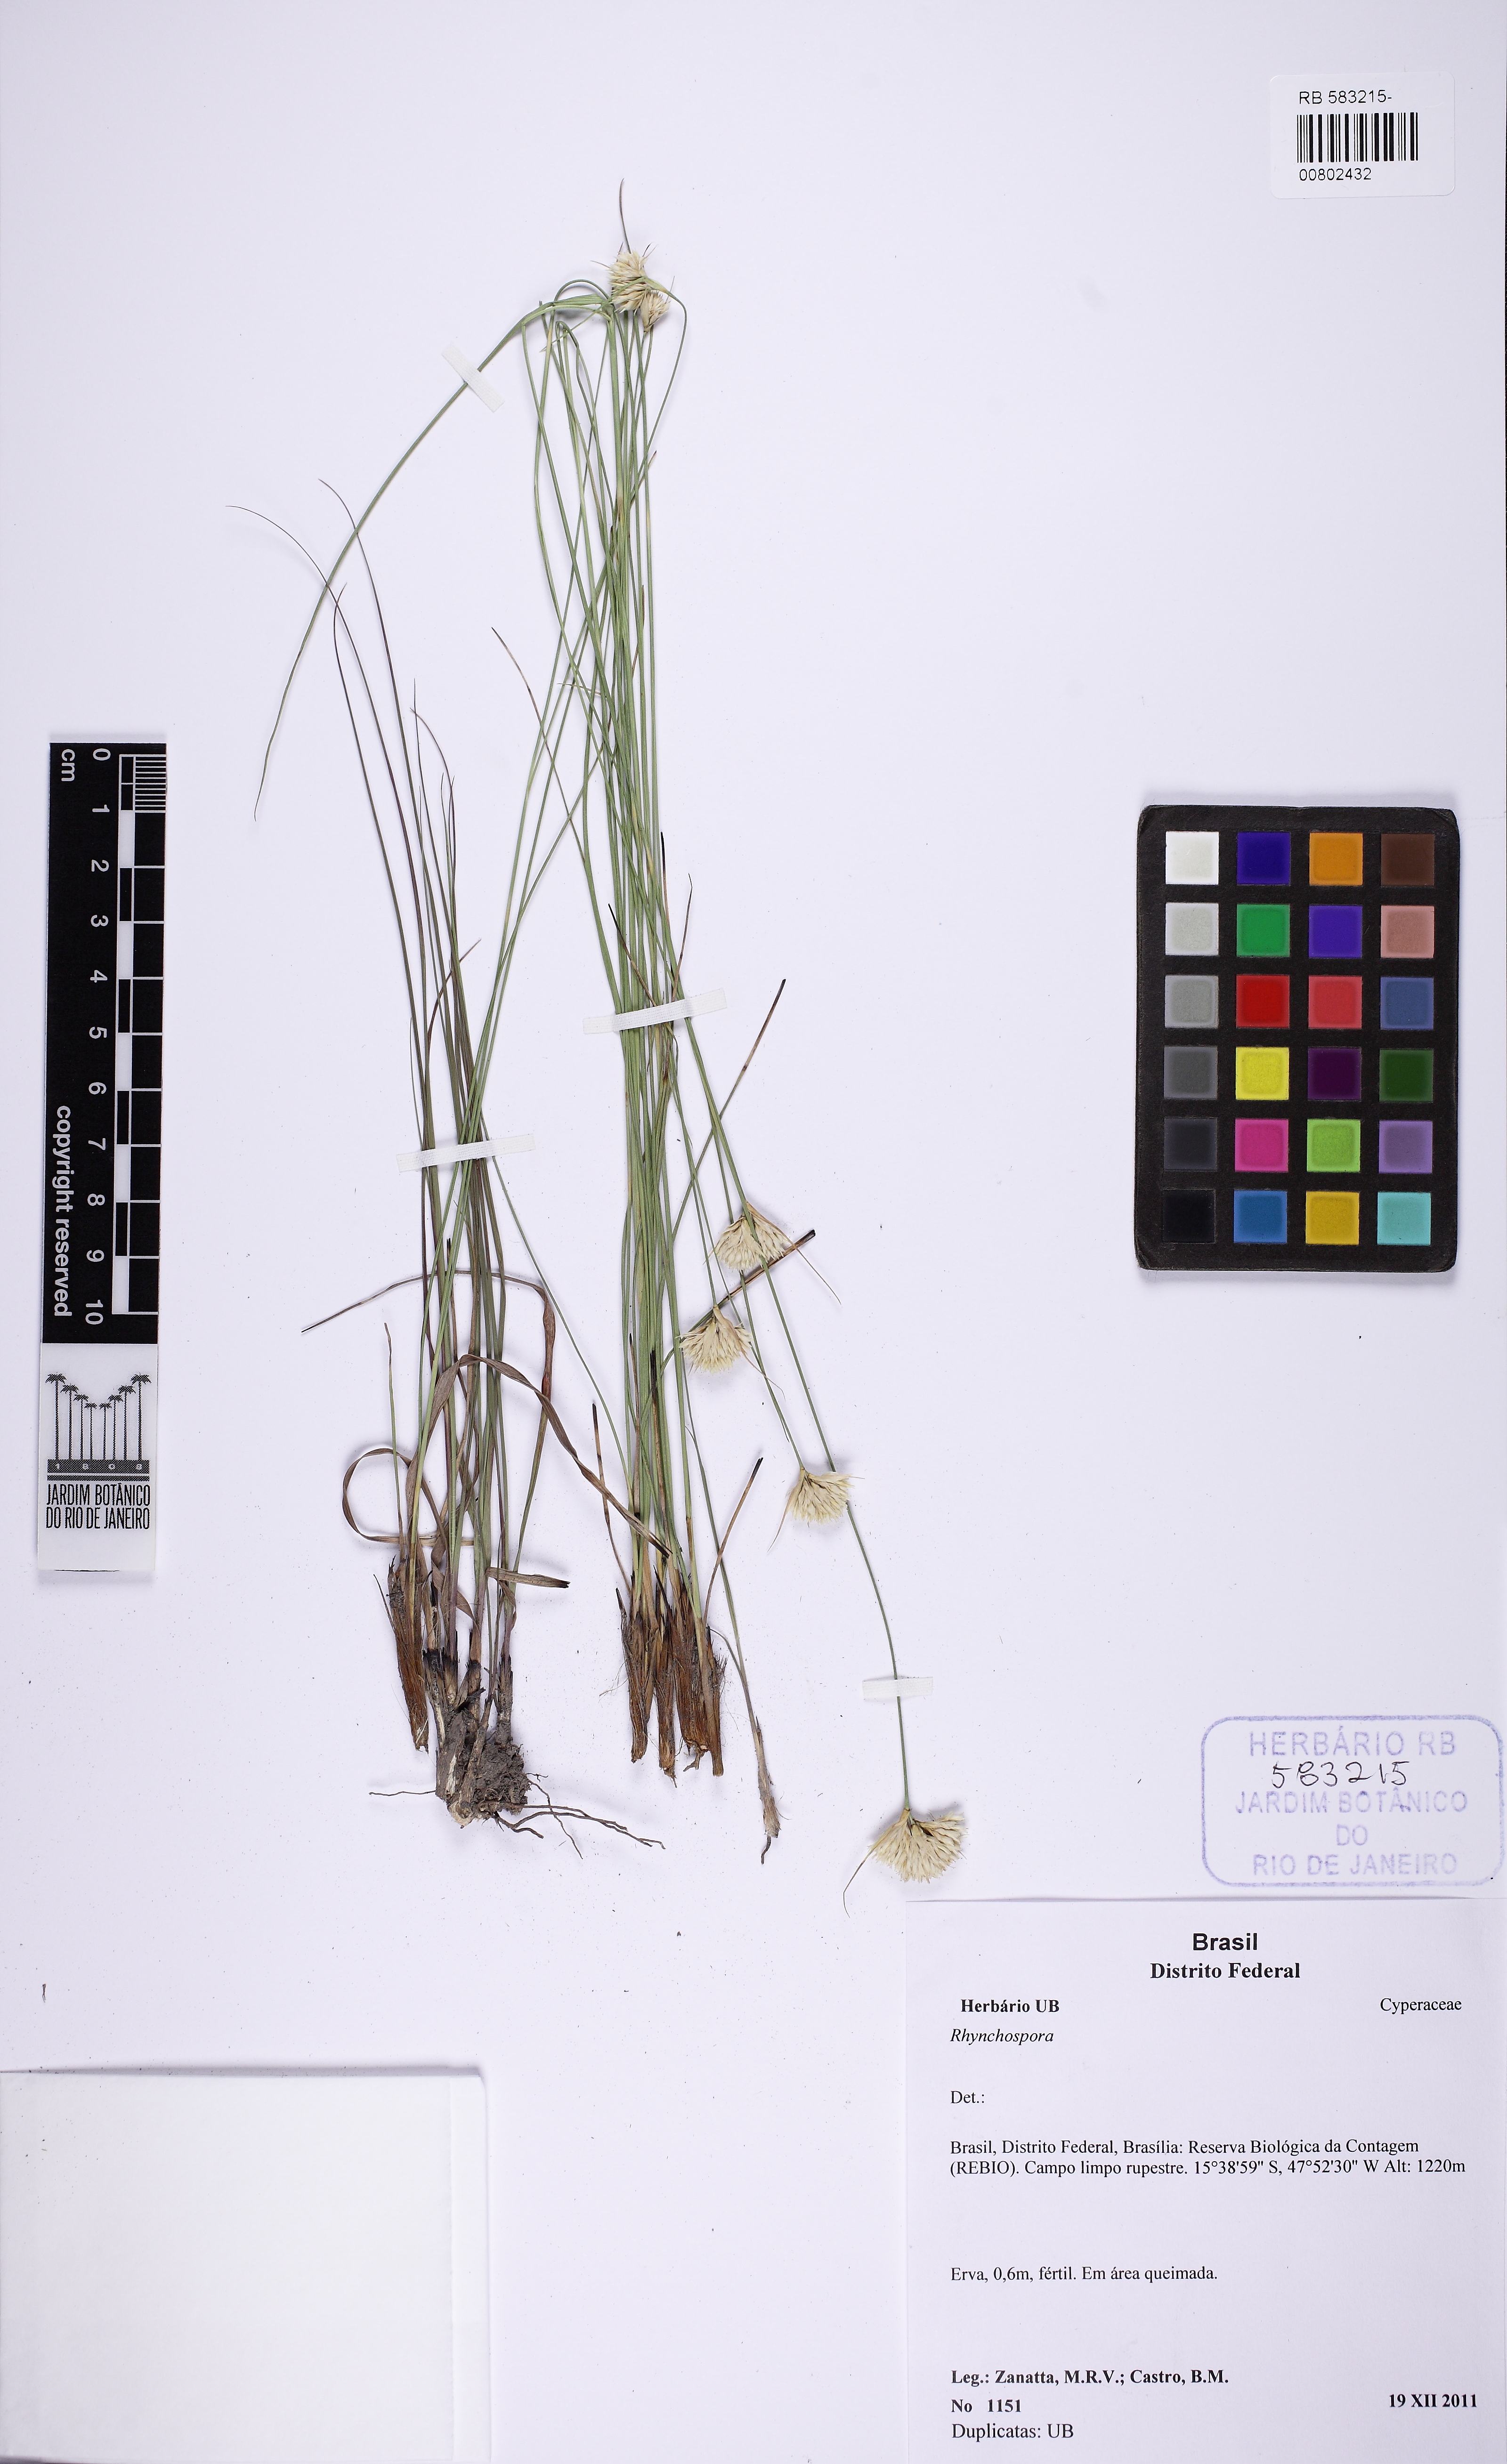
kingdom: Plantae
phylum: Tracheophyta
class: Liliopsida
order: Poales
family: Cyperaceae
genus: Rhynchospora
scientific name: Rhynchospora
